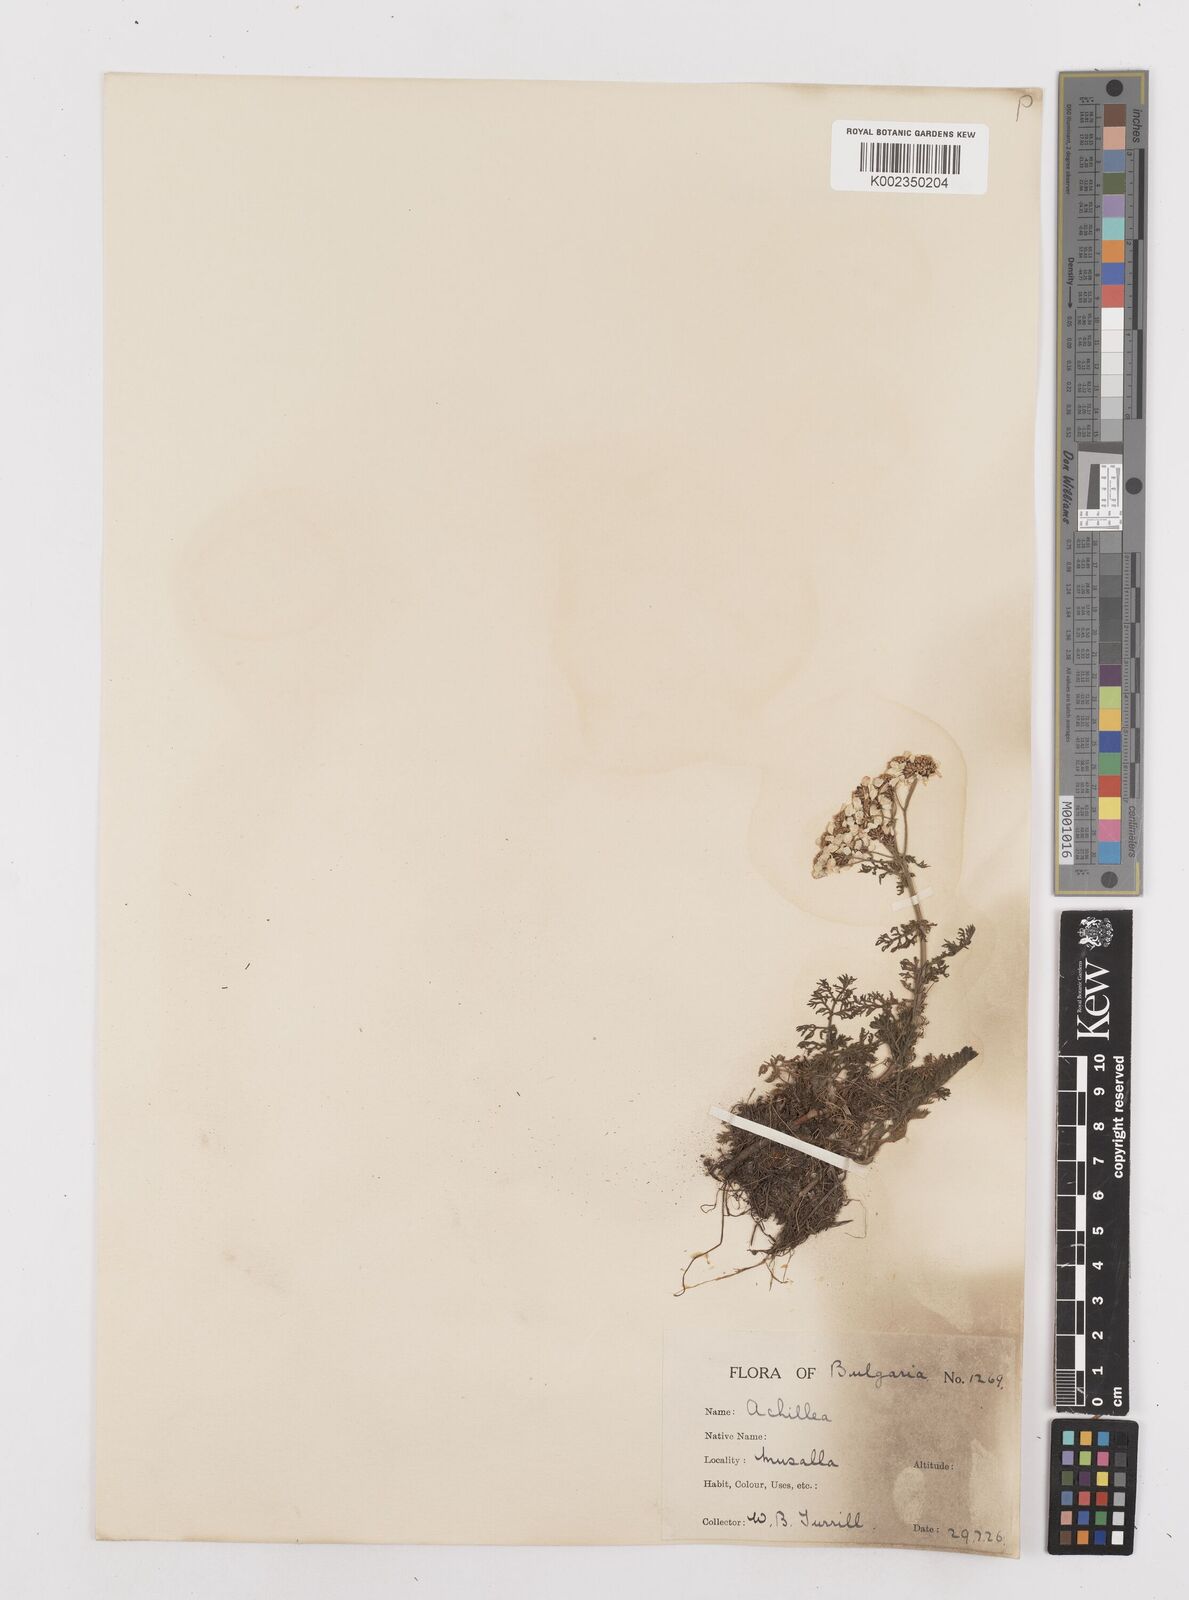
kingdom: Plantae
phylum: Tracheophyta
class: Magnoliopsida
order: Asterales
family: Asteraceae
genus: Achillea
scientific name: Achillea multifida
